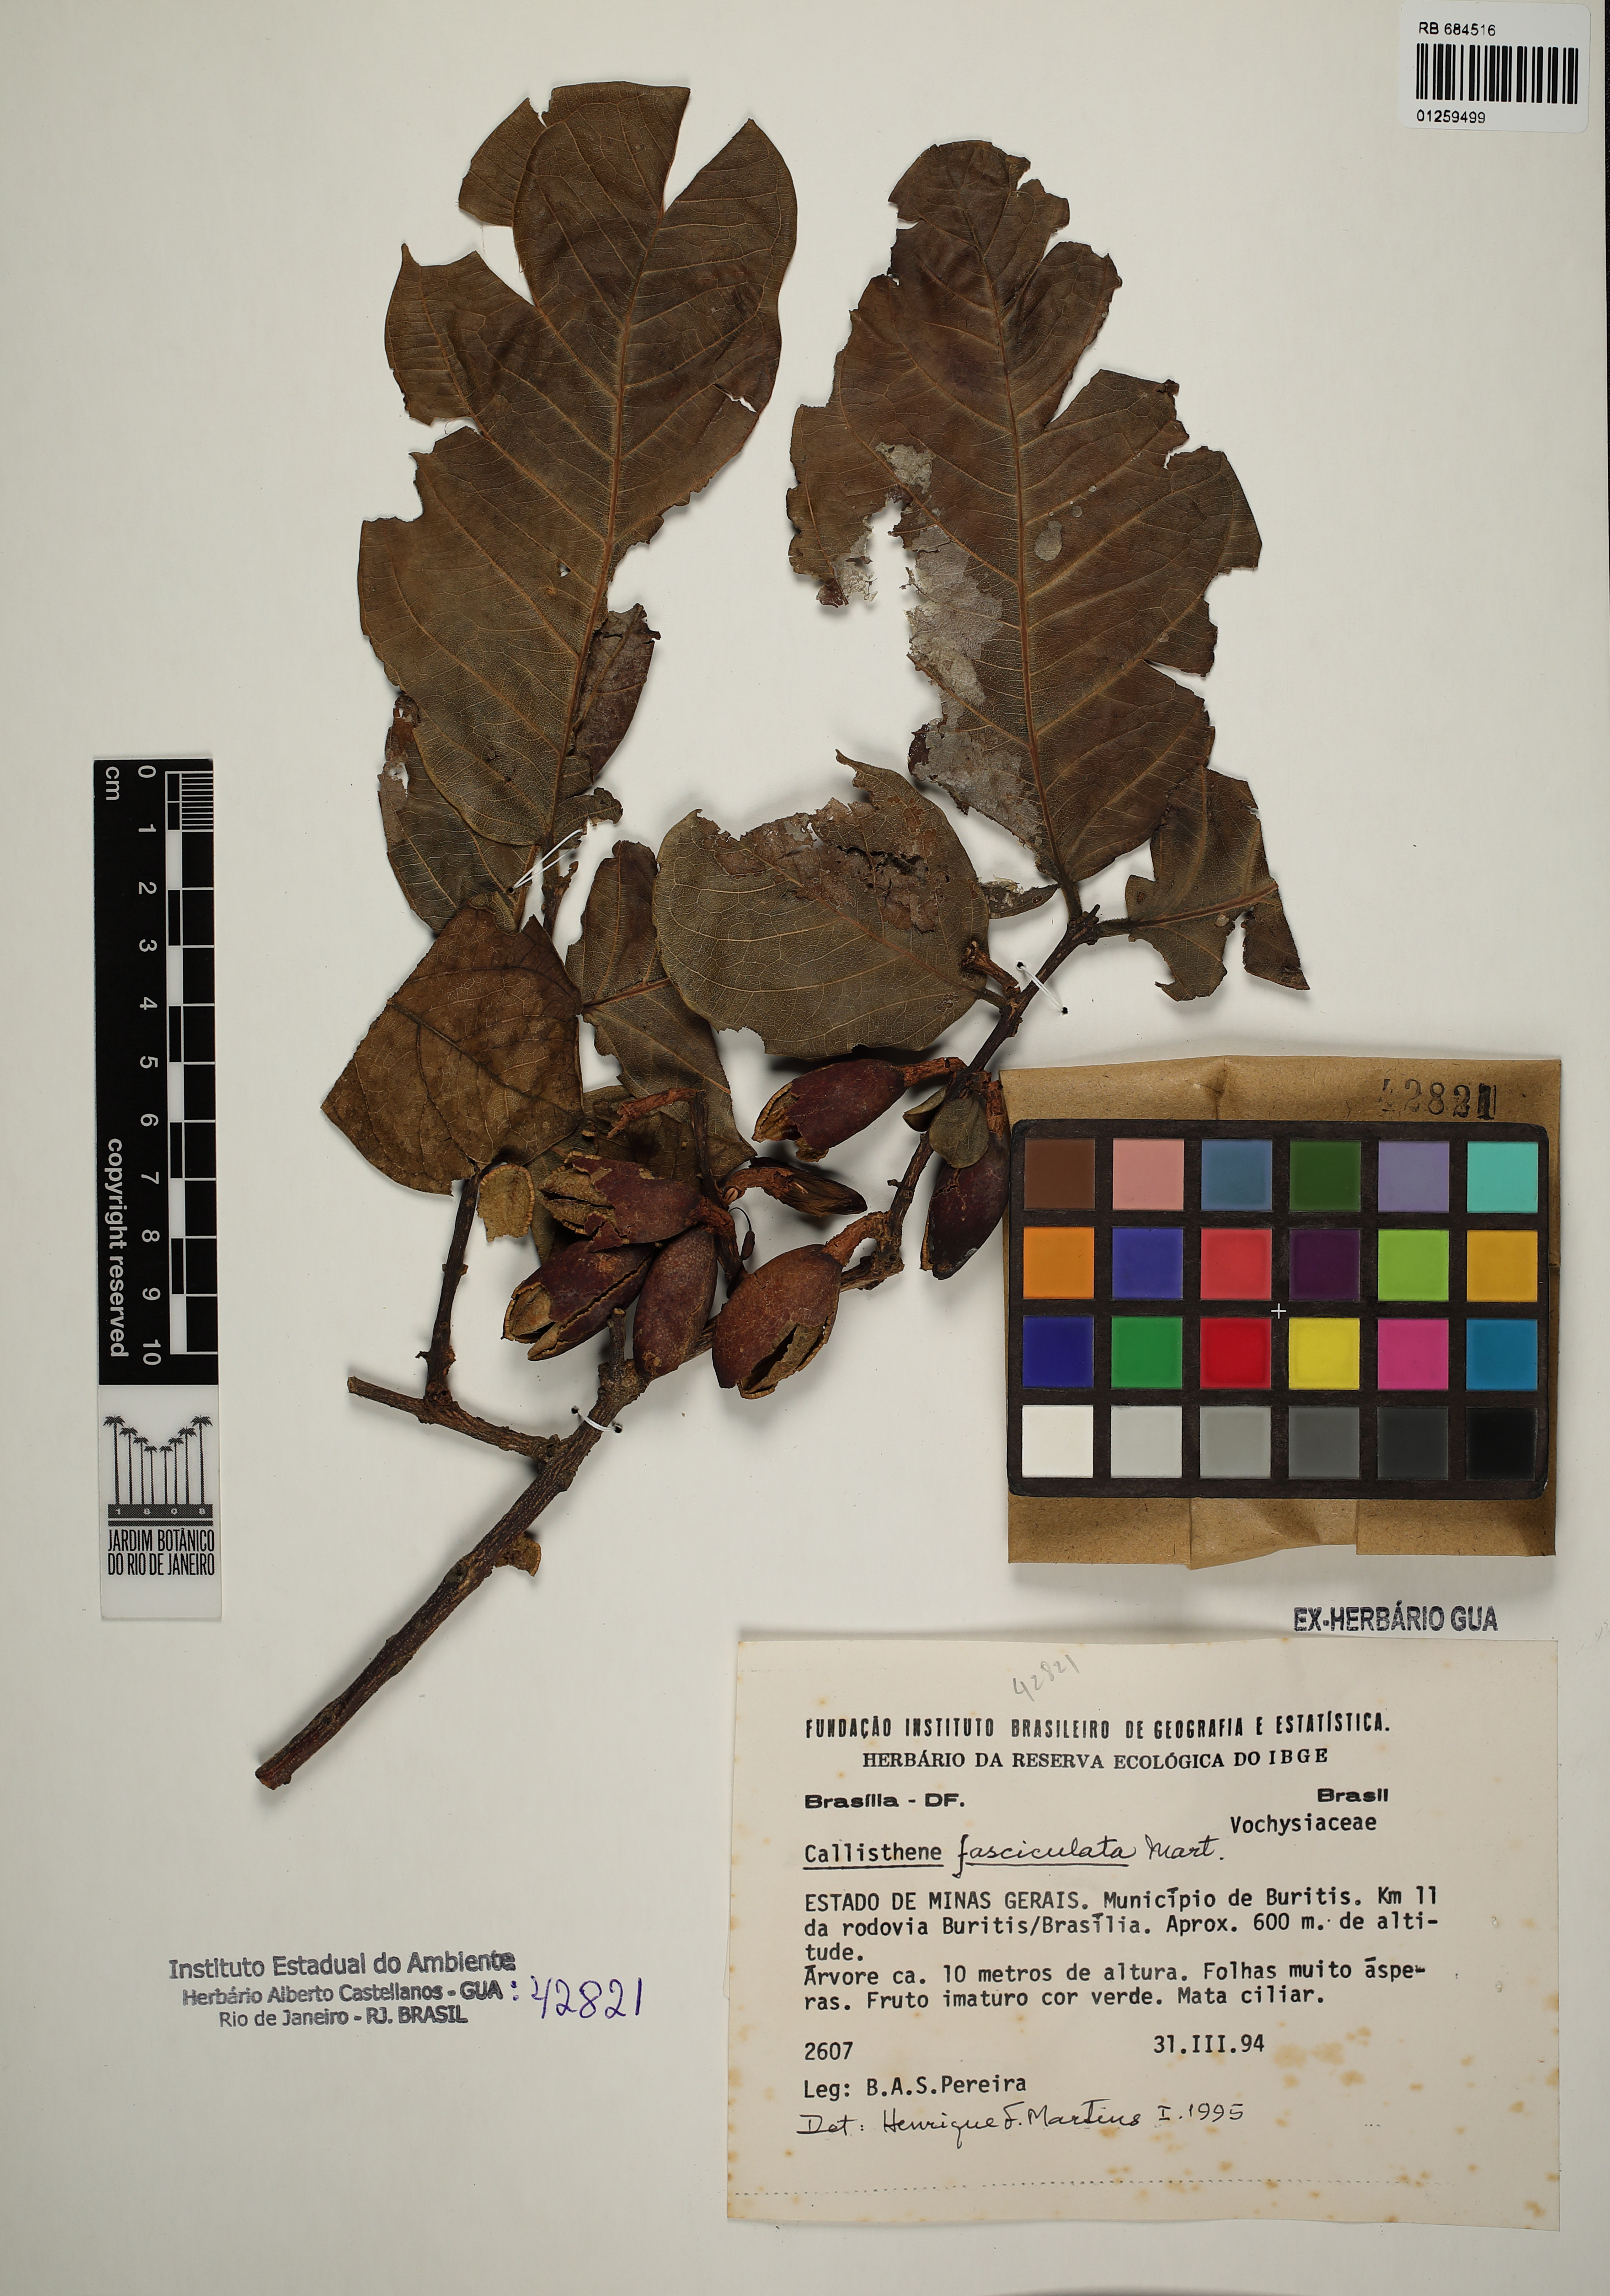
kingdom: Plantae
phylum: Tracheophyta
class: Magnoliopsida
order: Myrtales
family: Vochysiaceae
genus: Callisthene
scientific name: Callisthene fasciculata
